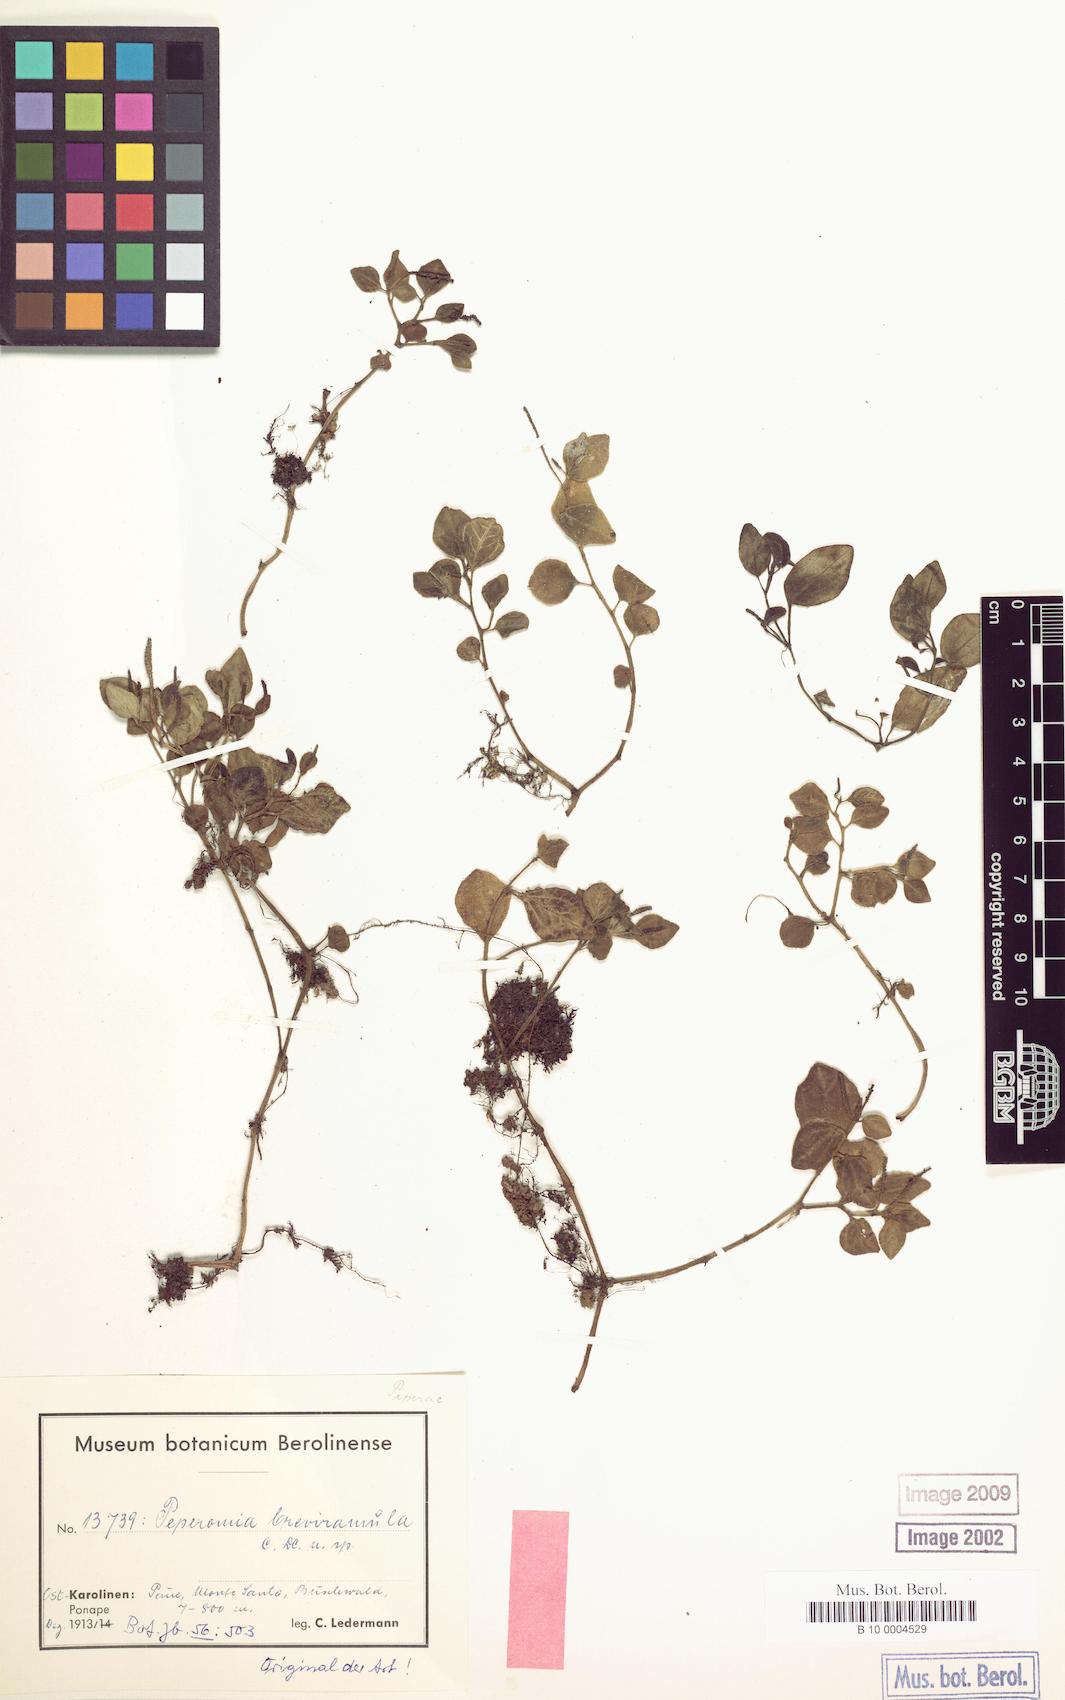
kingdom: Plantae
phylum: Tracheophyta
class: Magnoliopsida
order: Piperales
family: Piperaceae
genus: Peperomia
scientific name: Peperomia breviramula
